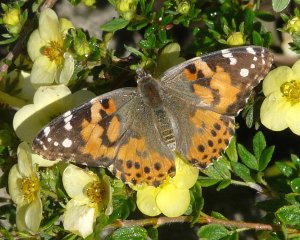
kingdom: Animalia
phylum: Arthropoda
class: Insecta
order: Lepidoptera
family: Nymphalidae
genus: Vanessa
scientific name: Vanessa cardui
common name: Painted Lady
